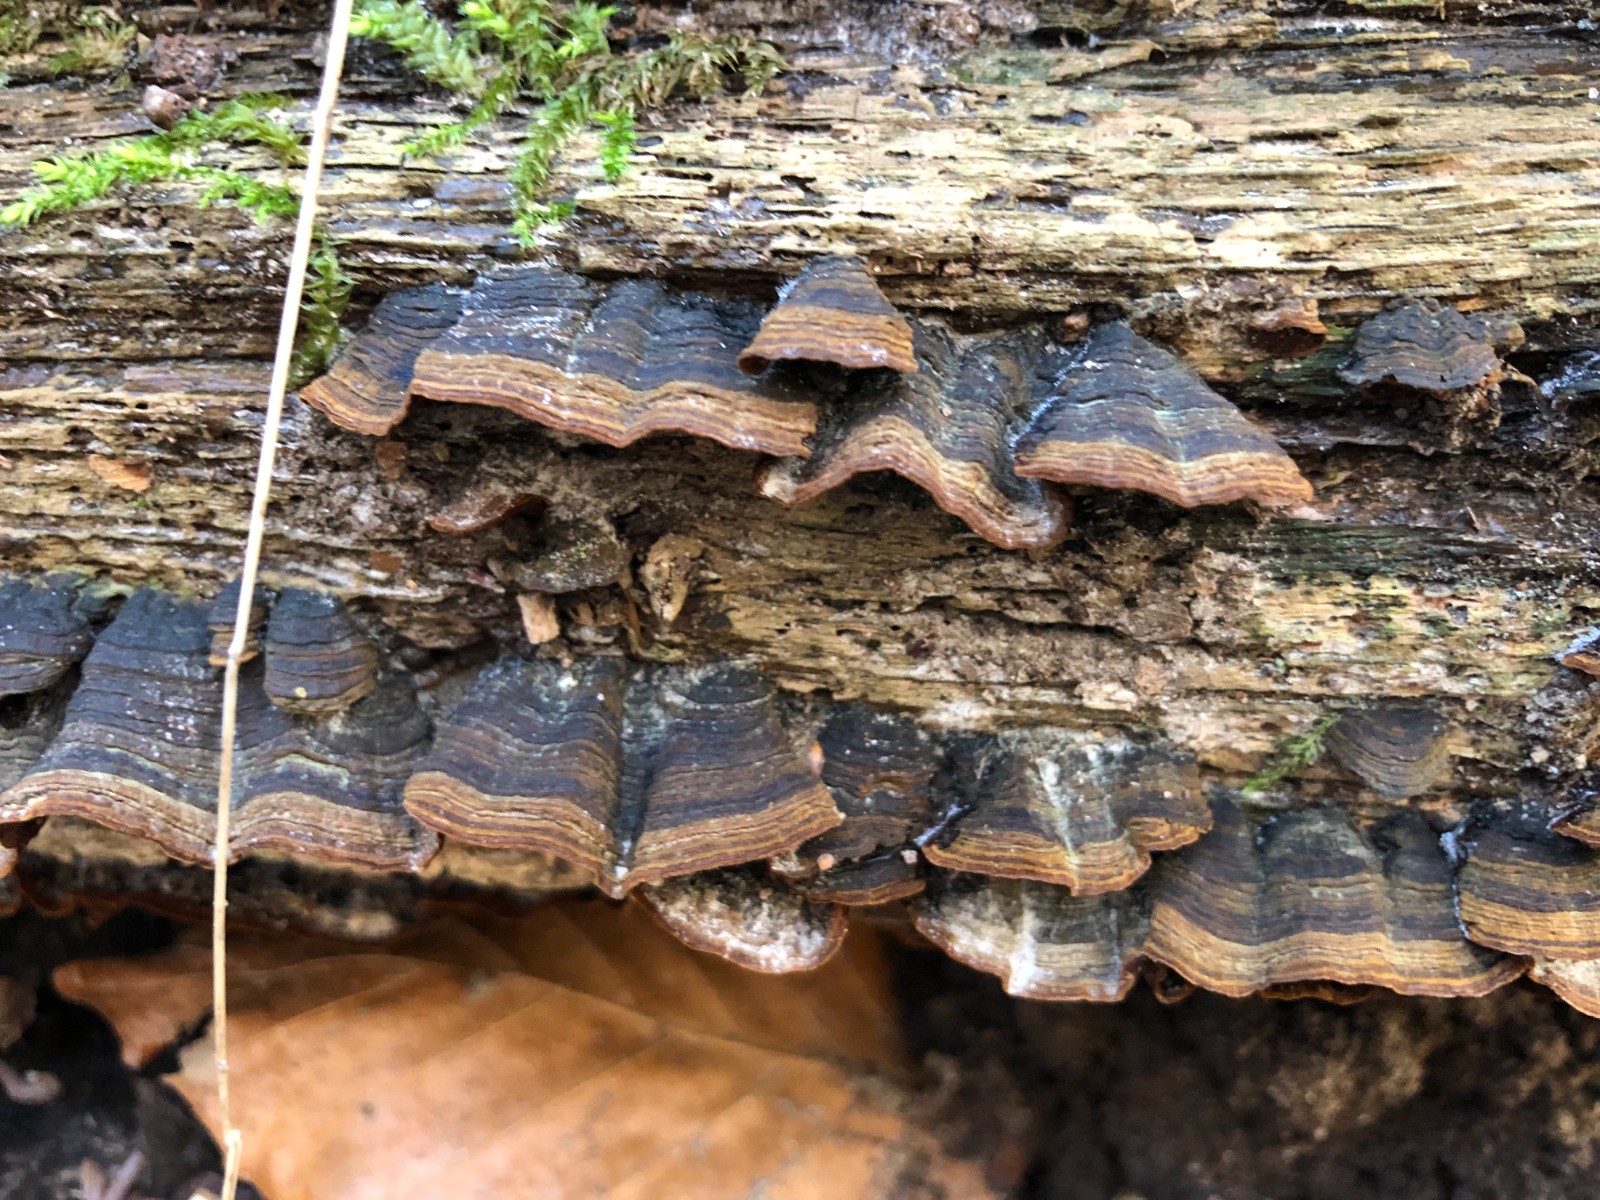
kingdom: Fungi
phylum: Basidiomycota
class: Agaricomycetes
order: Hymenochaetales
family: Hymenochaetaceae
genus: Hymenochaete
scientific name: Hymenochaete rubiginosa
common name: stiv ruslædersvamp
